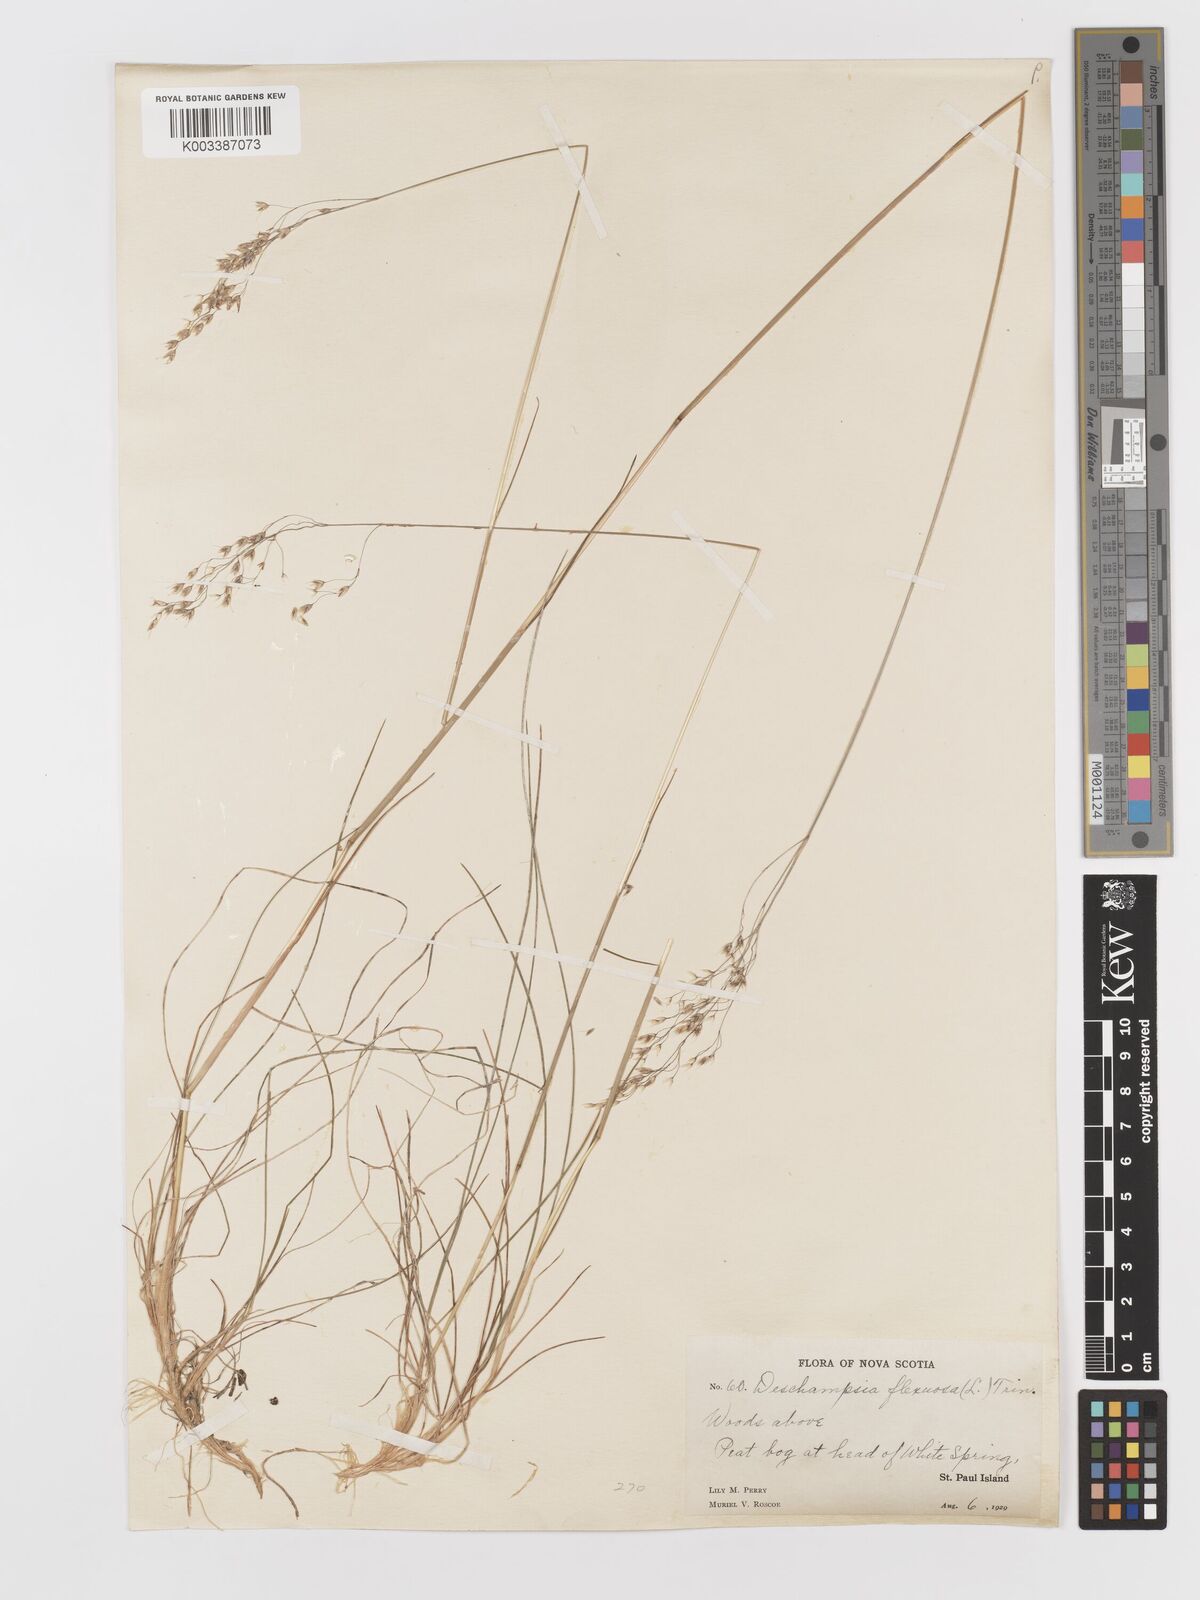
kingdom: Plantae
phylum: Tracheophyta
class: Liliopsida
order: Poales
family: Poaceae
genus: Avenella
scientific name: Avenella flexuosa
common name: Wavy hairgrass
